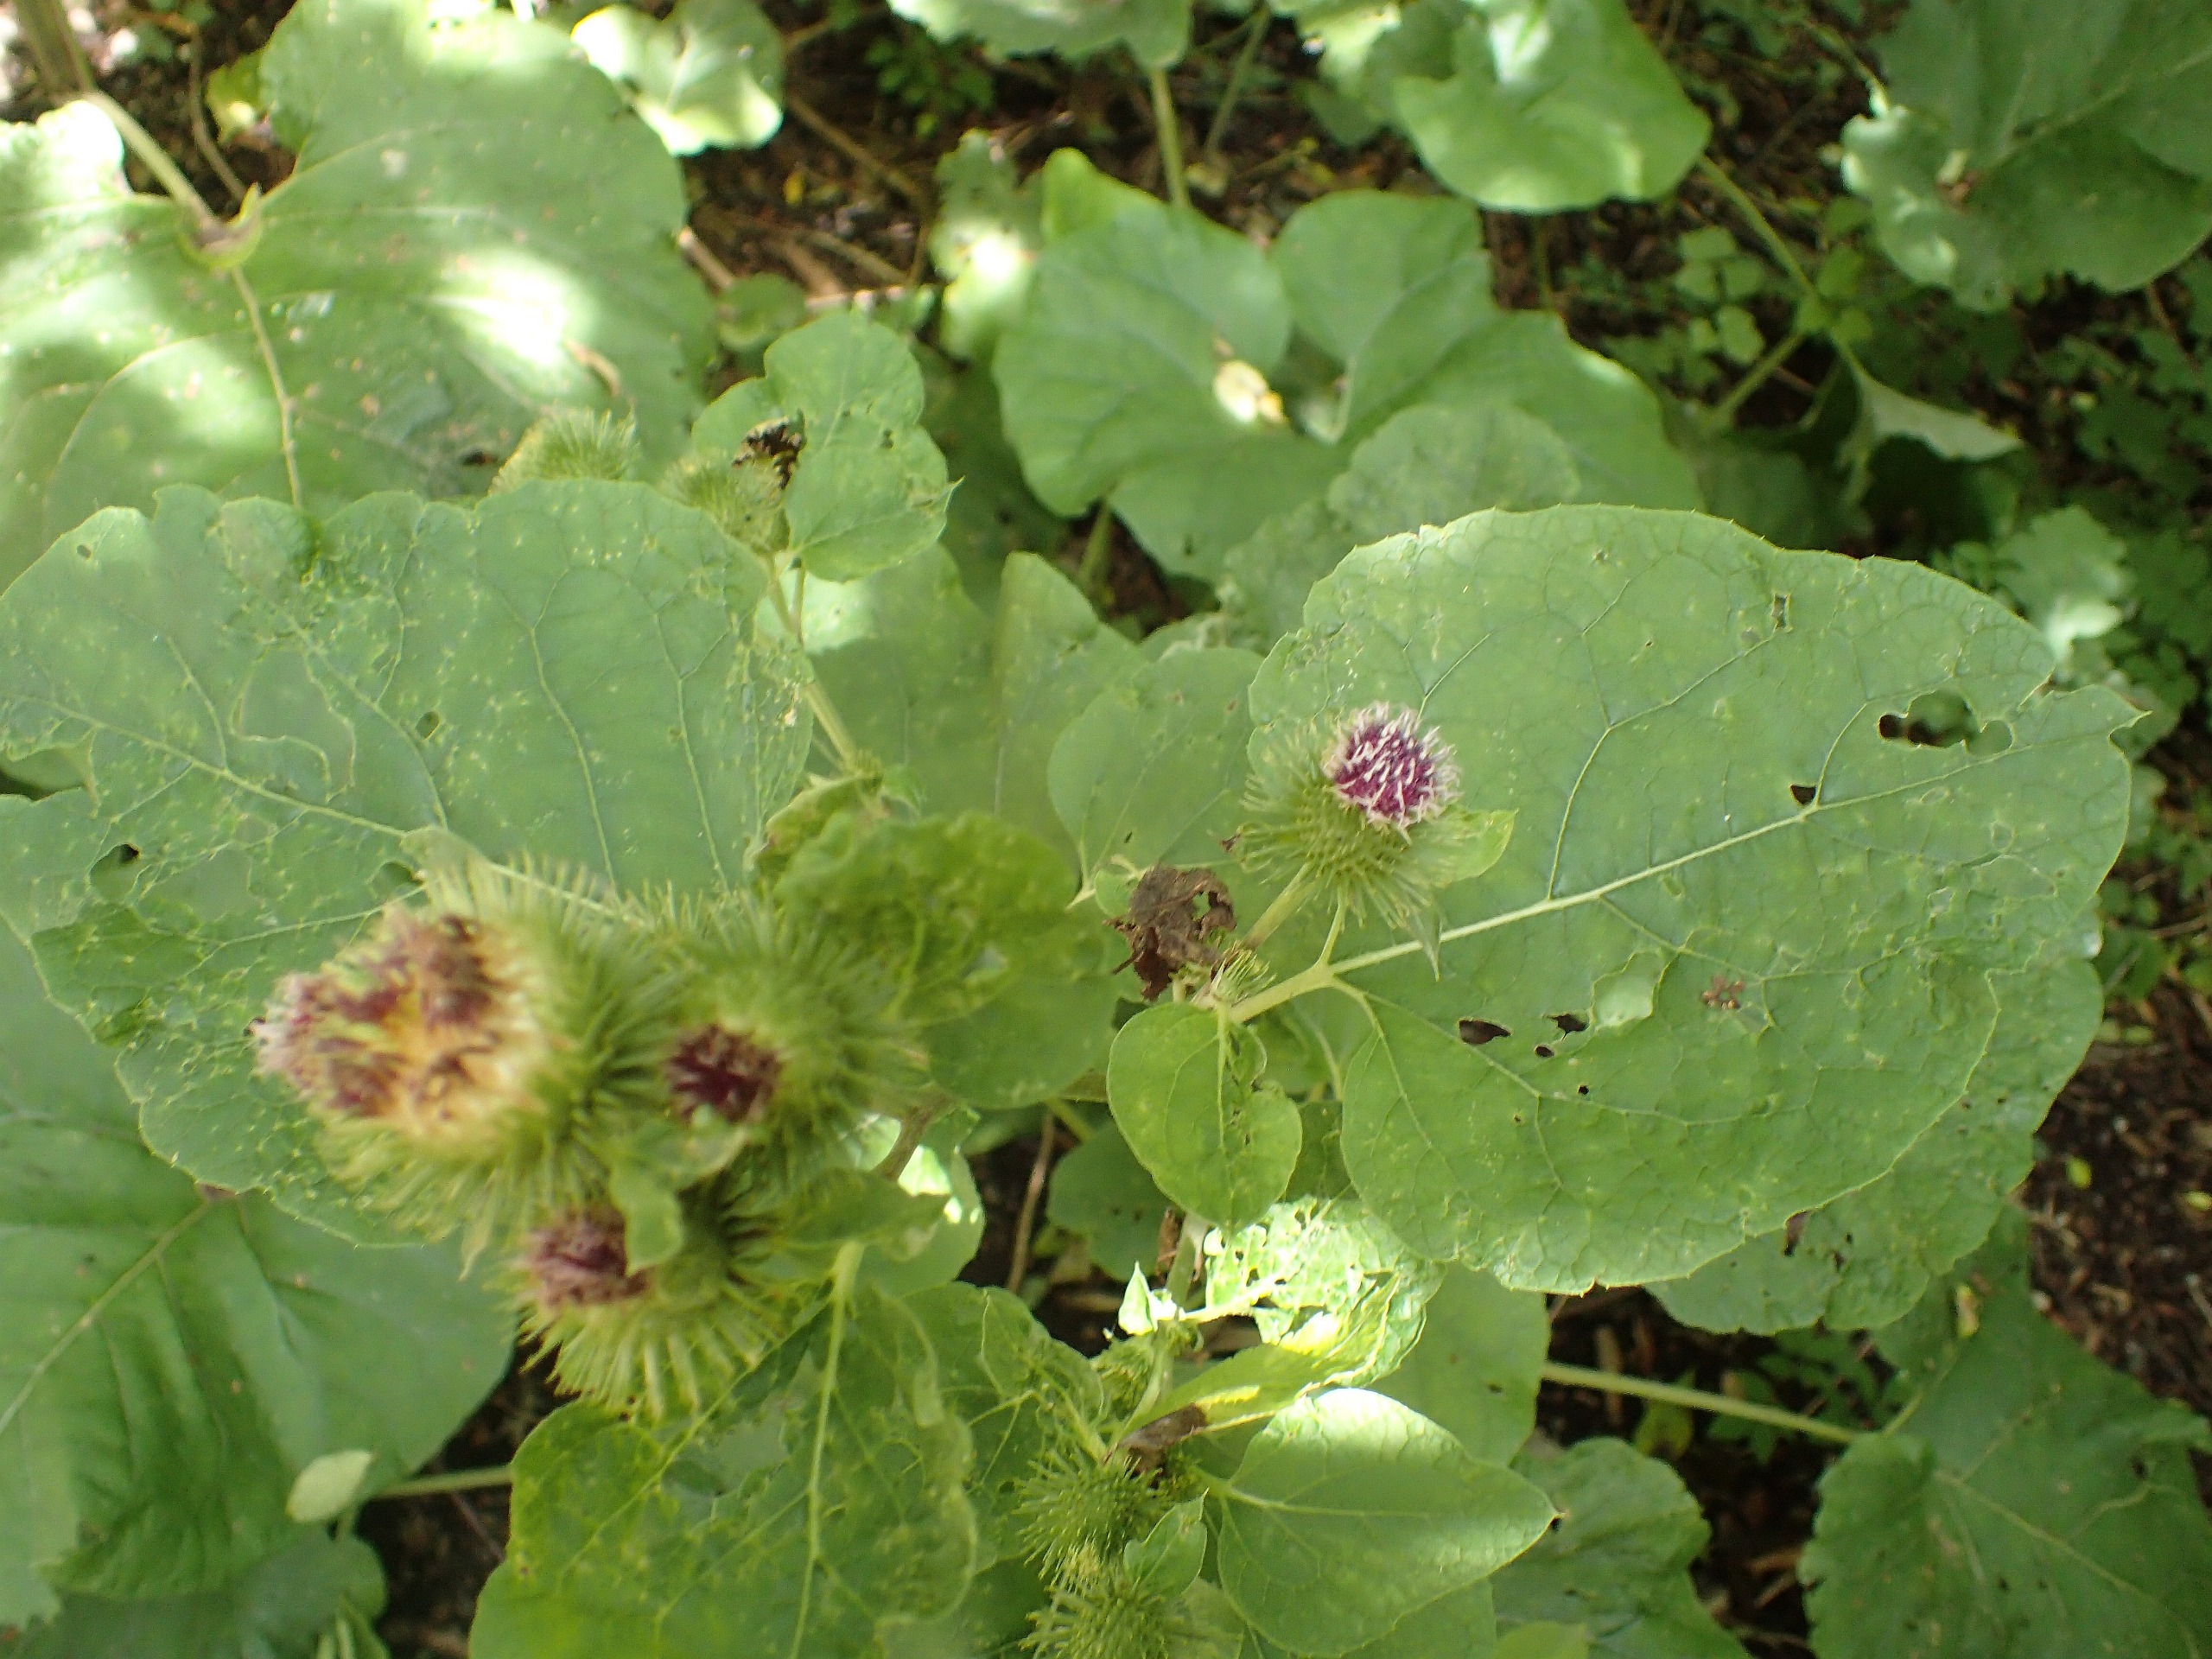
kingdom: Plantae
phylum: Tracheophyta
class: Magnoliopsida
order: Asterales
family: Asteraceae
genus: Arctium
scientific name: Arctium lappa
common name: Glat burre
